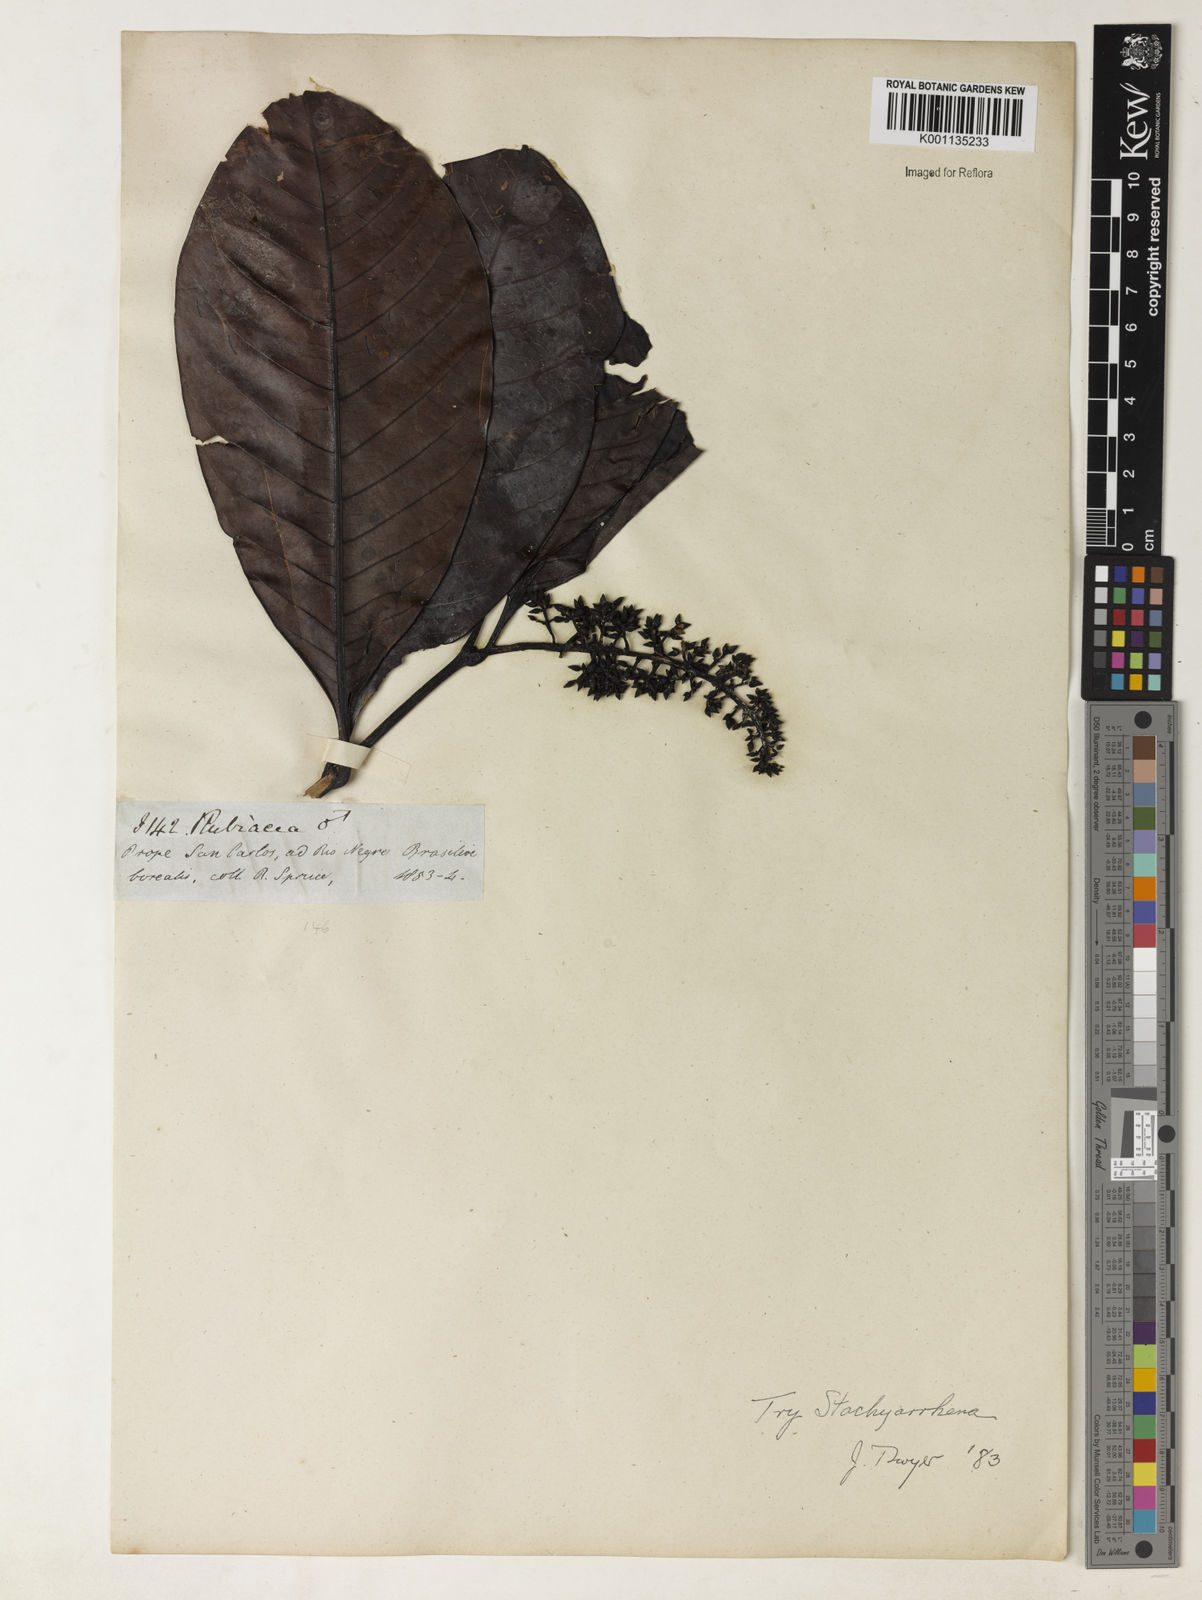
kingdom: Plantae
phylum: Tracheophyta
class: Magnoliopsida
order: Gentianales
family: Rubiaceae
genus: Stachyarrhena
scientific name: Stachyarrhena
